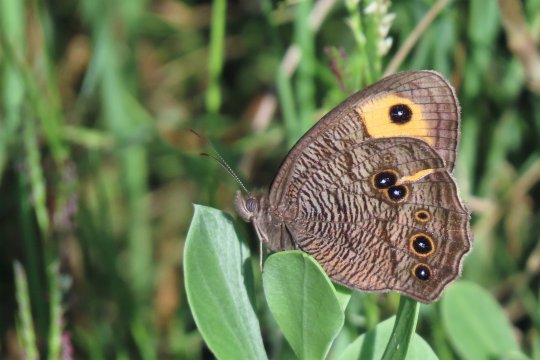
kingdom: Animalia
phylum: Arthropoda
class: Insecta
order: Lepidoptera
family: Nymphalidae
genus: Cercyonis
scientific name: Cercyonis pegala
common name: Common Wood-Nymph
